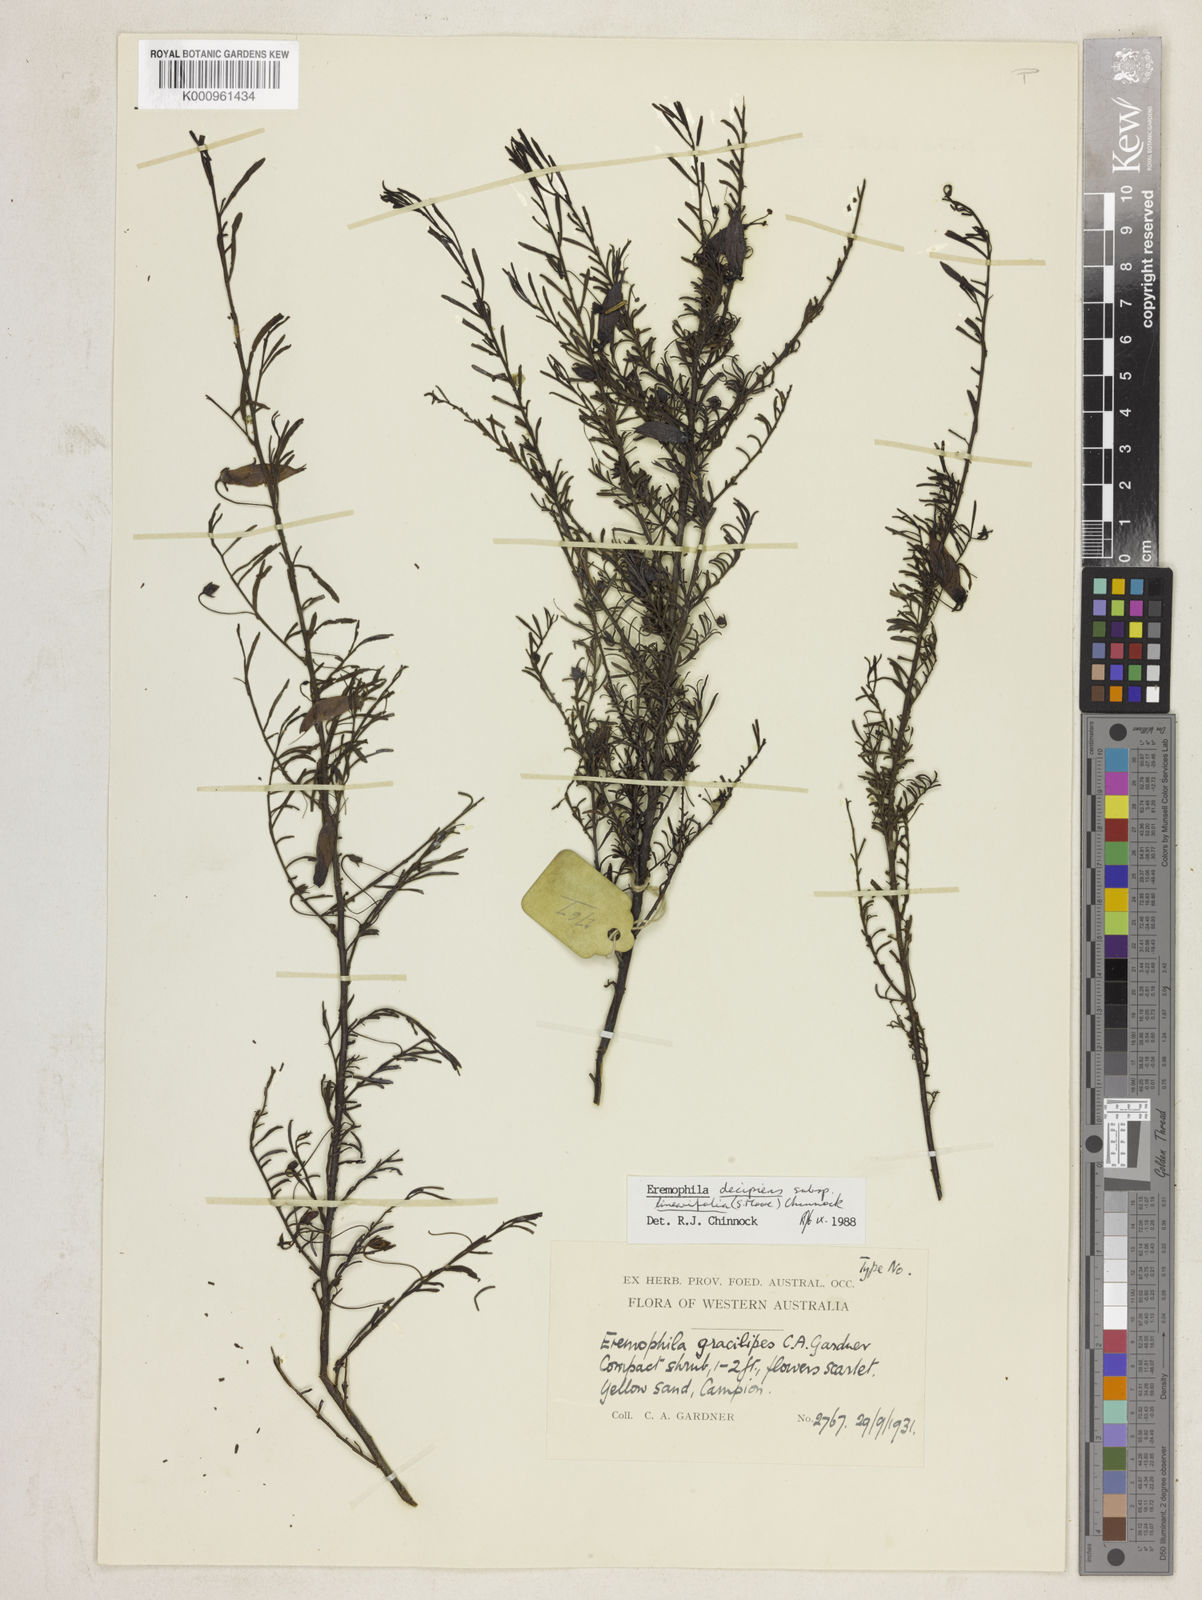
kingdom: Plantae
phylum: Tracheophyta
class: Magnoliopsida
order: Lamiales
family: Scrophulariaceae
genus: Eremophila
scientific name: Eremophila decipiens
